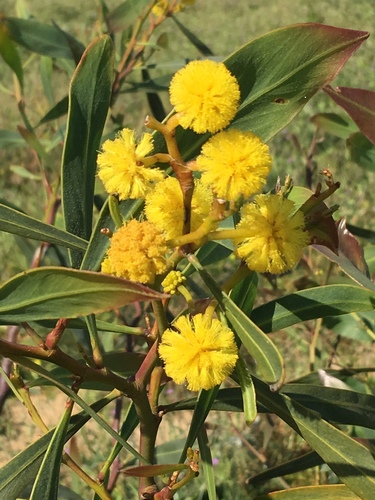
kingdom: Plantae
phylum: Tracheophyta
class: Magnoliopsida
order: Fabales
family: Fabaceae
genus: Acacia
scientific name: Acacia saligna
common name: Orange wattle
